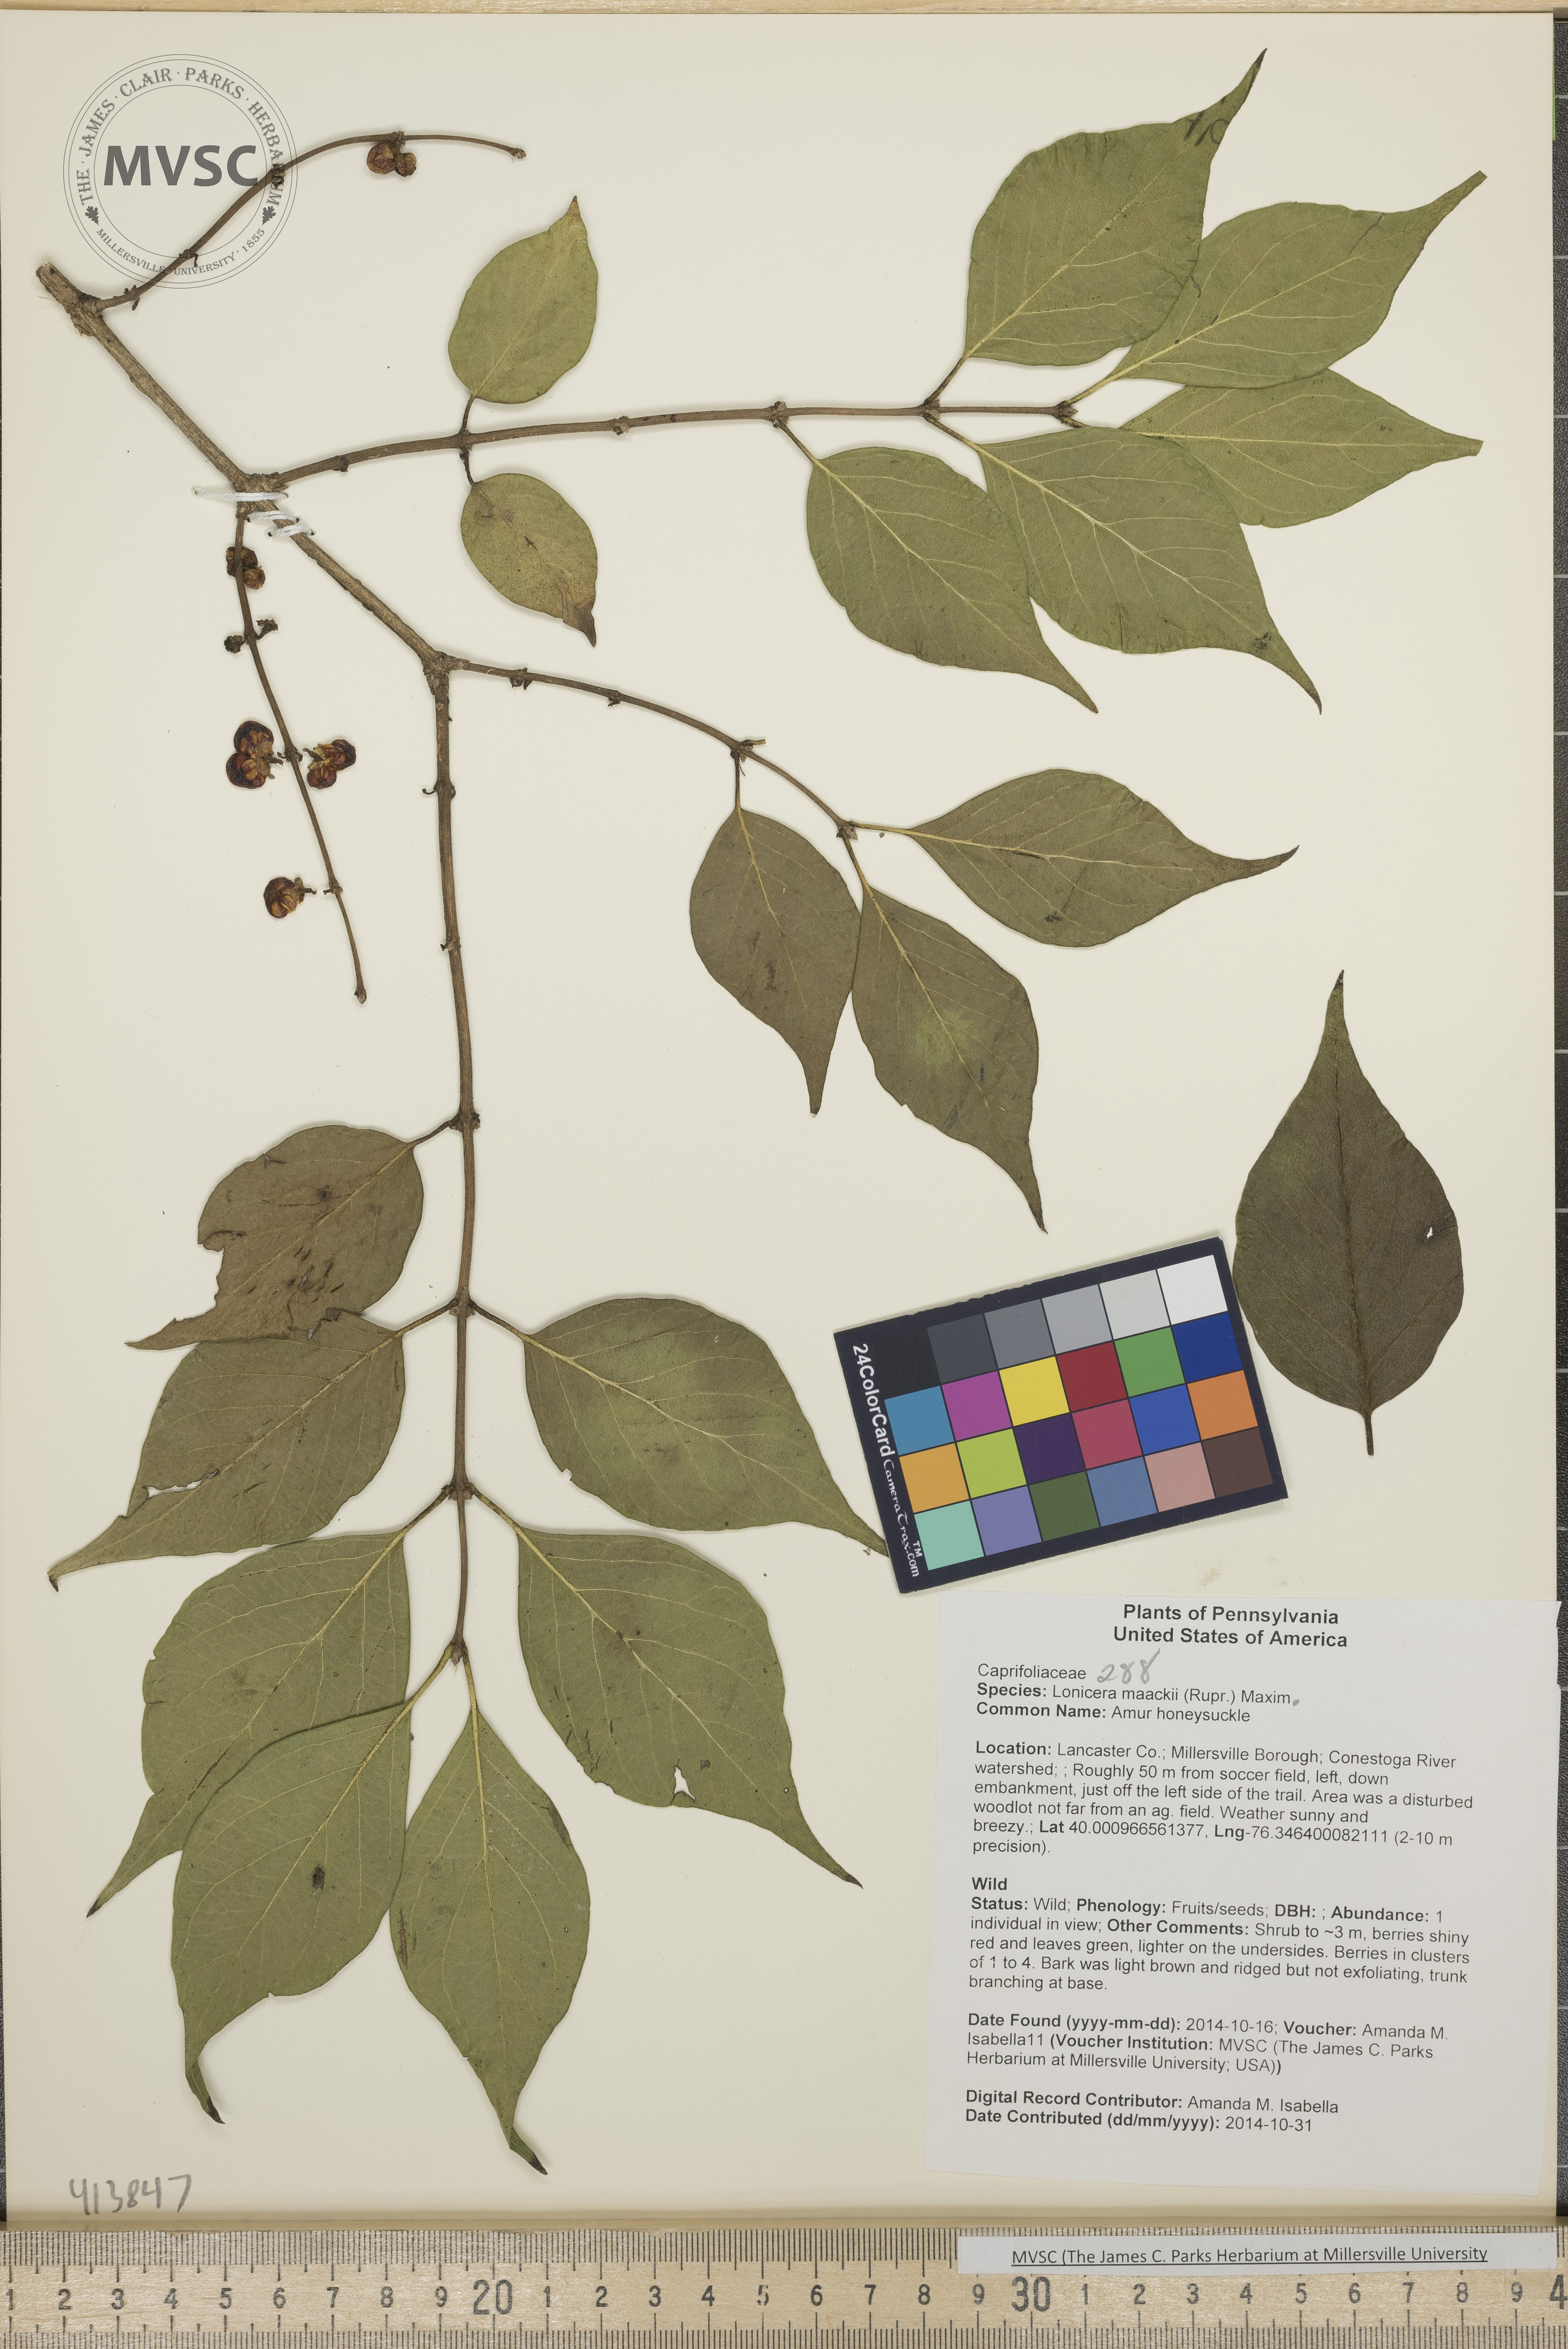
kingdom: Plantae
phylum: Tracheophyta
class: Magnoliopsida
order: Dipsacales
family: Caprifoliaceae
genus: Lonicera
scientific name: Lonicera maackii
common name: Amur honeysuckle
